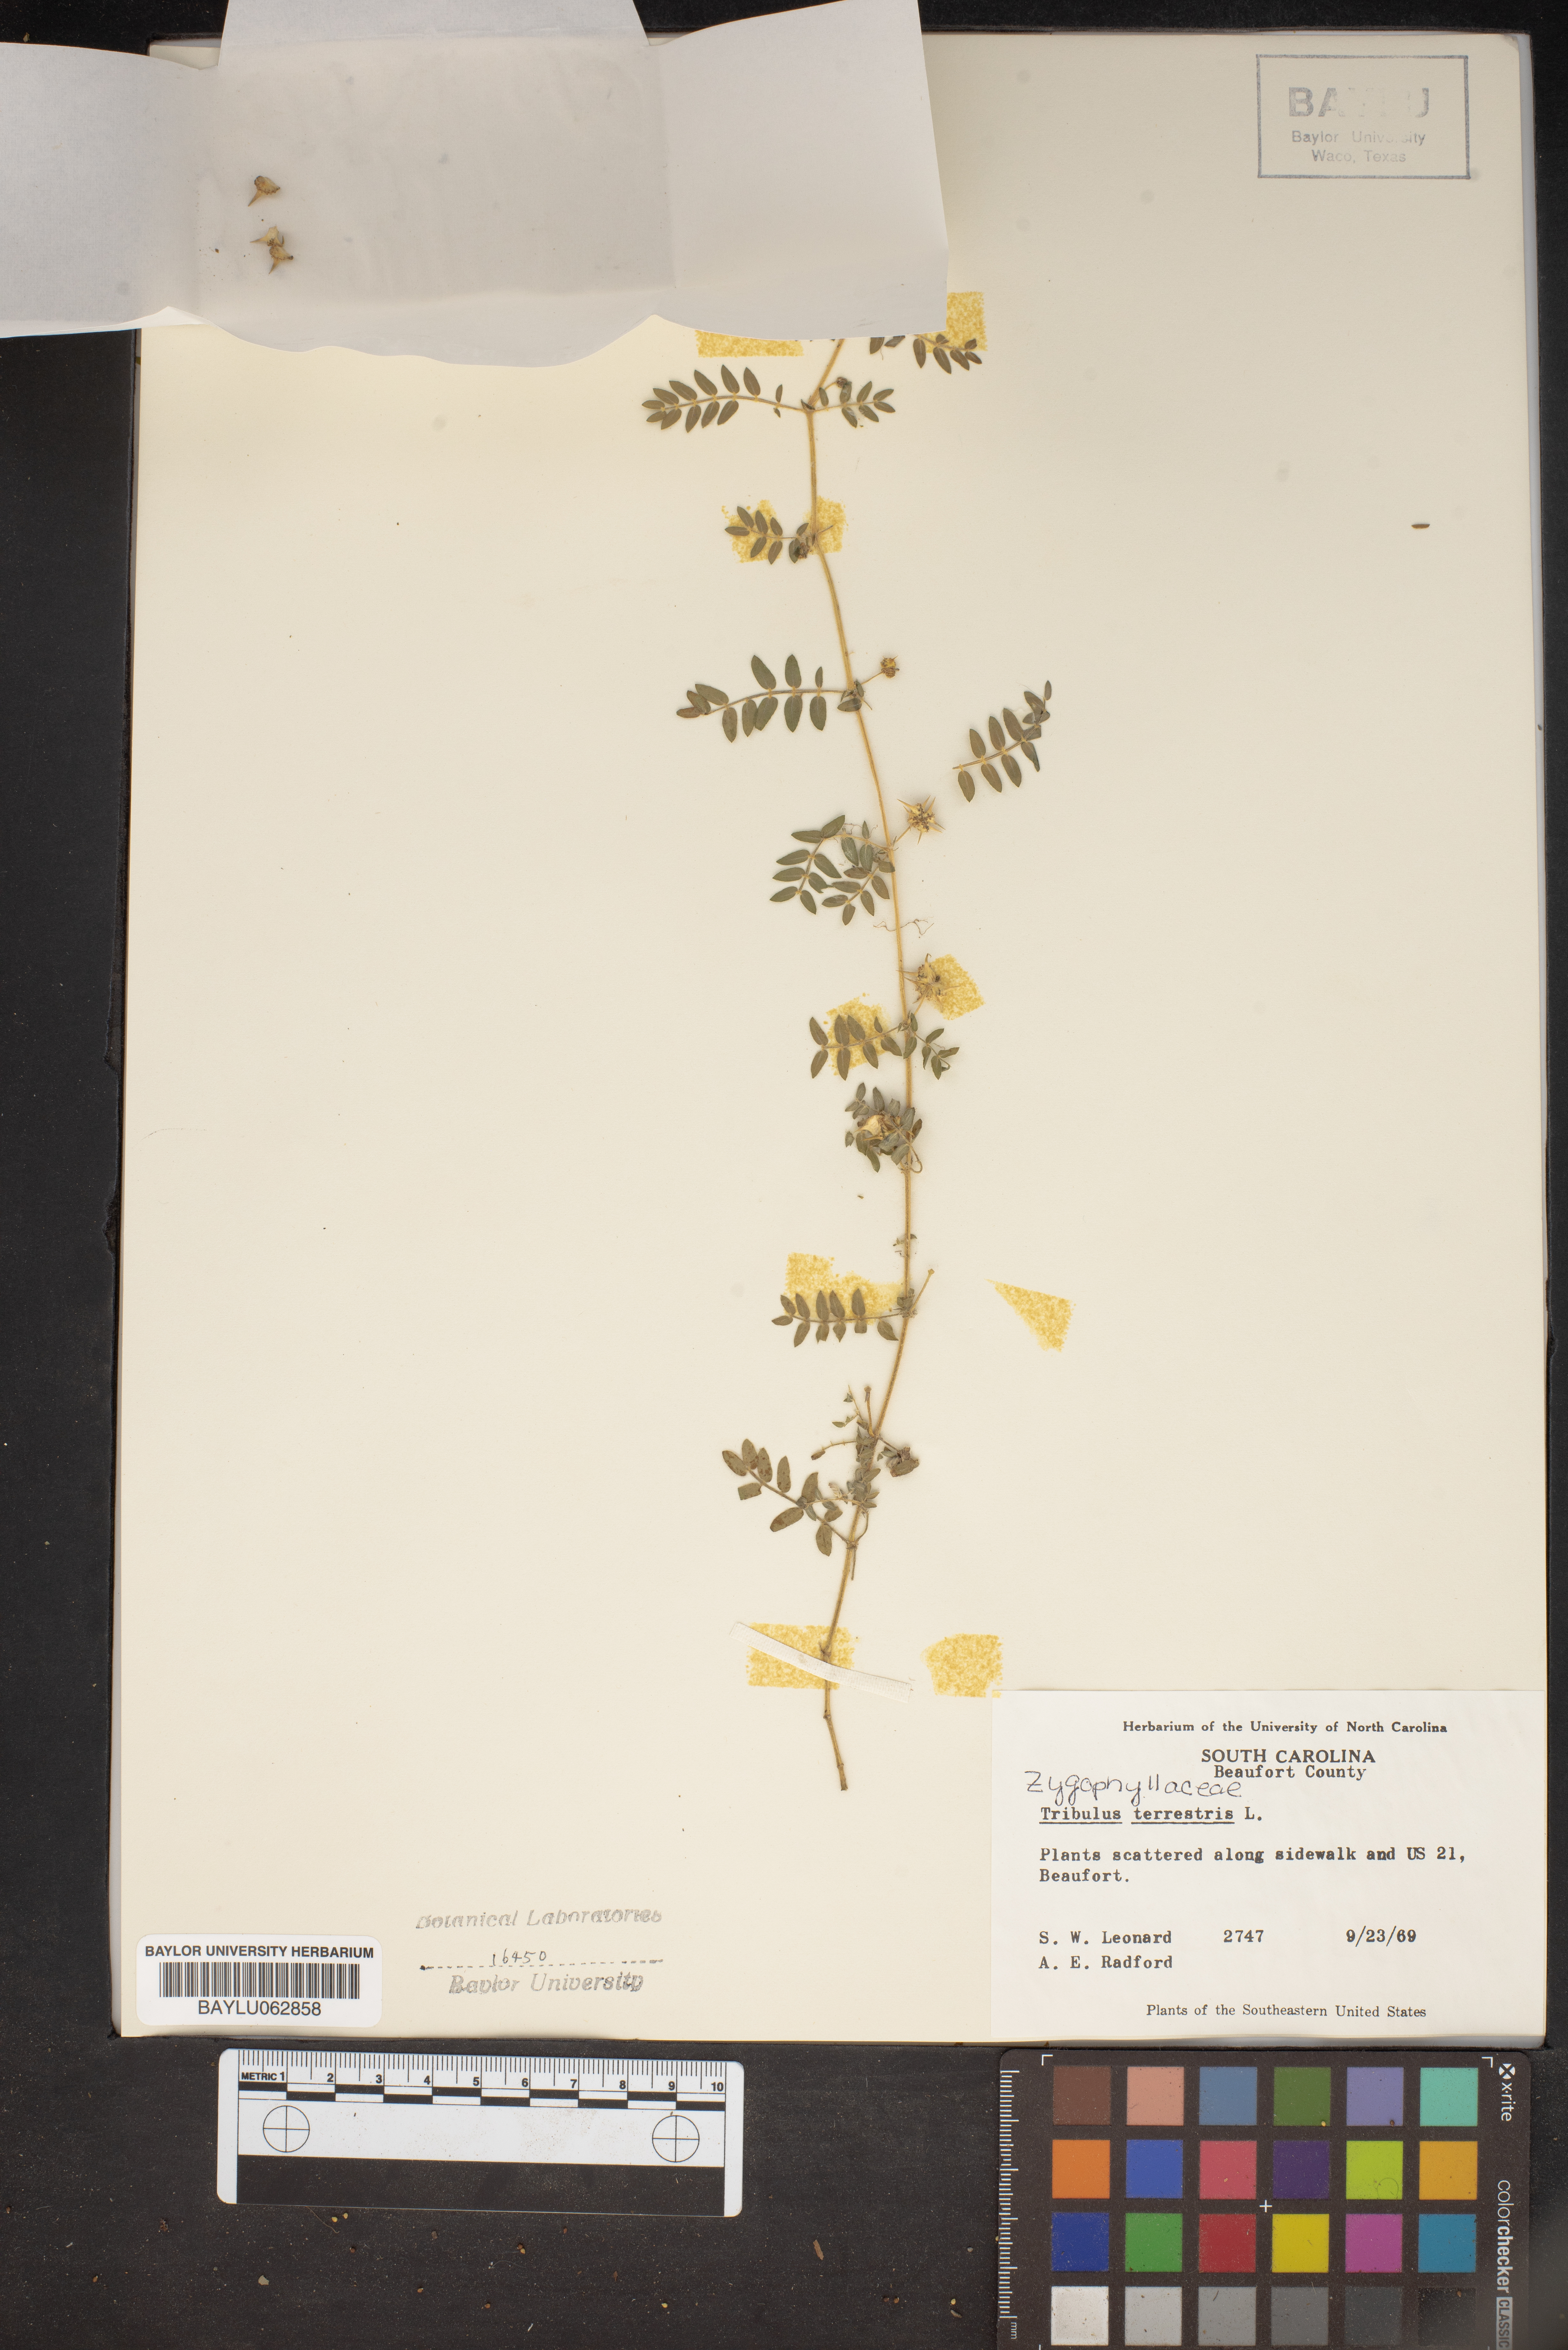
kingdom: Plantae
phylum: Tracheophyta
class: Magnoliopsida
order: Zygophyllales
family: Zygophyllaceae
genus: Tribulus
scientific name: Tribulus terrestris
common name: Puncturevine
